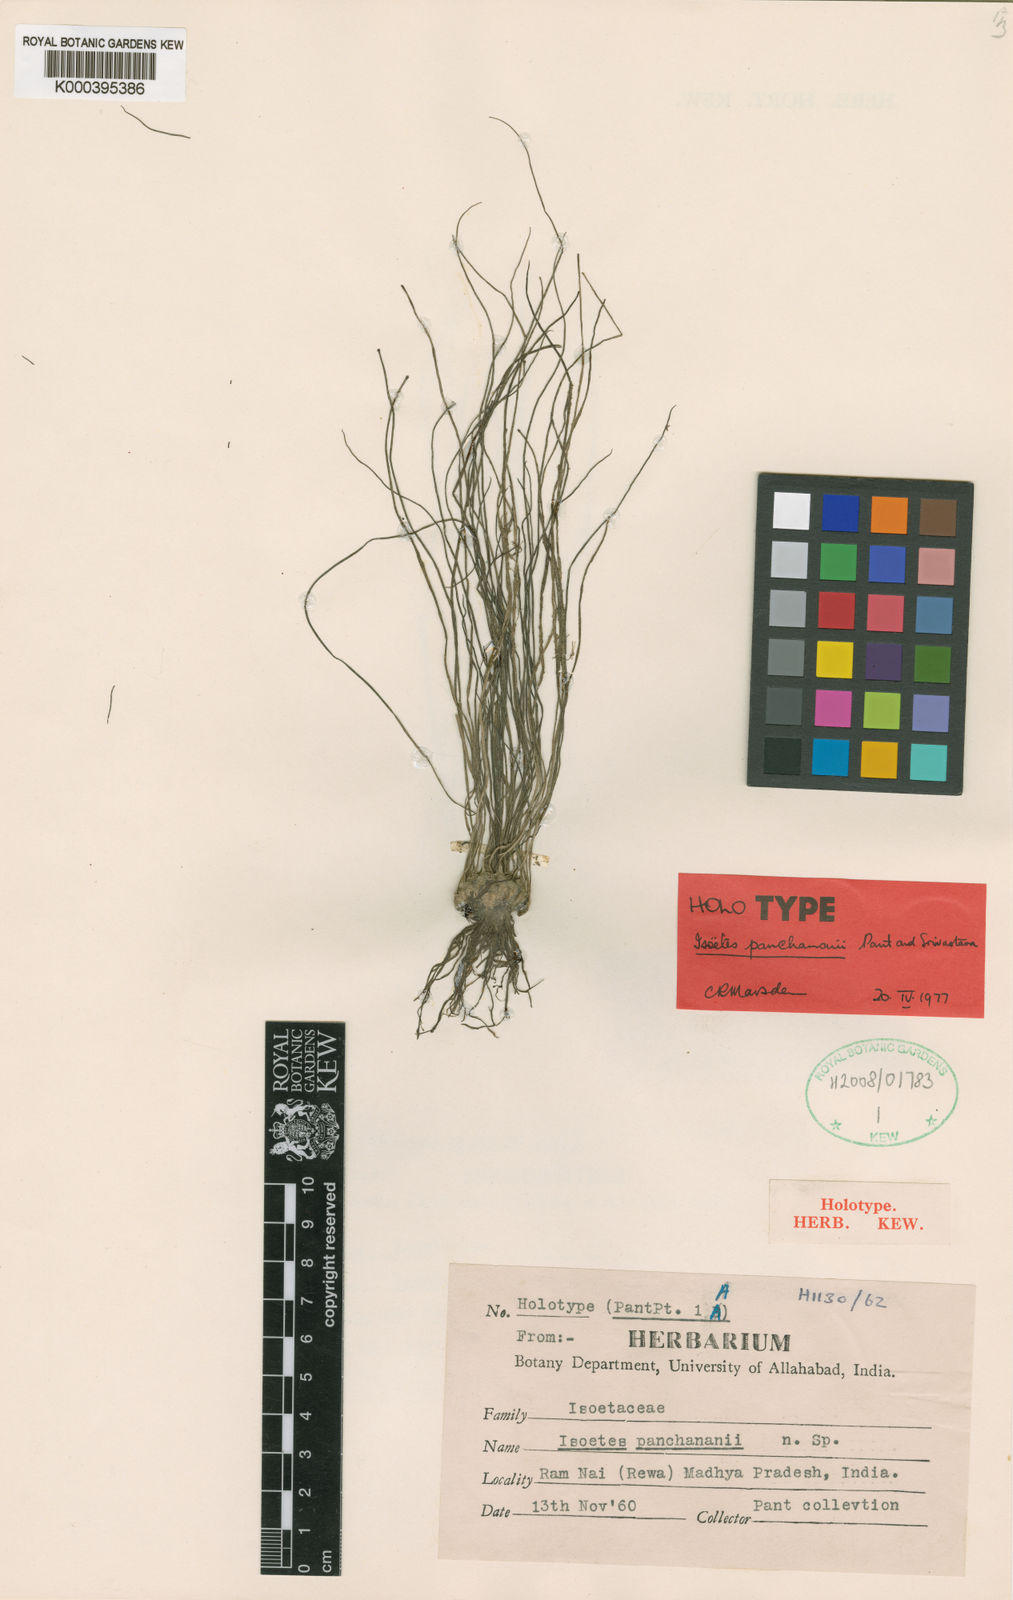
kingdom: Plantae
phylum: Tracheophyta
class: Lycopodiopsida
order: Isoetales
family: Isoetaceae
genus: Isoetes
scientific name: Isoetes sahyadrii
